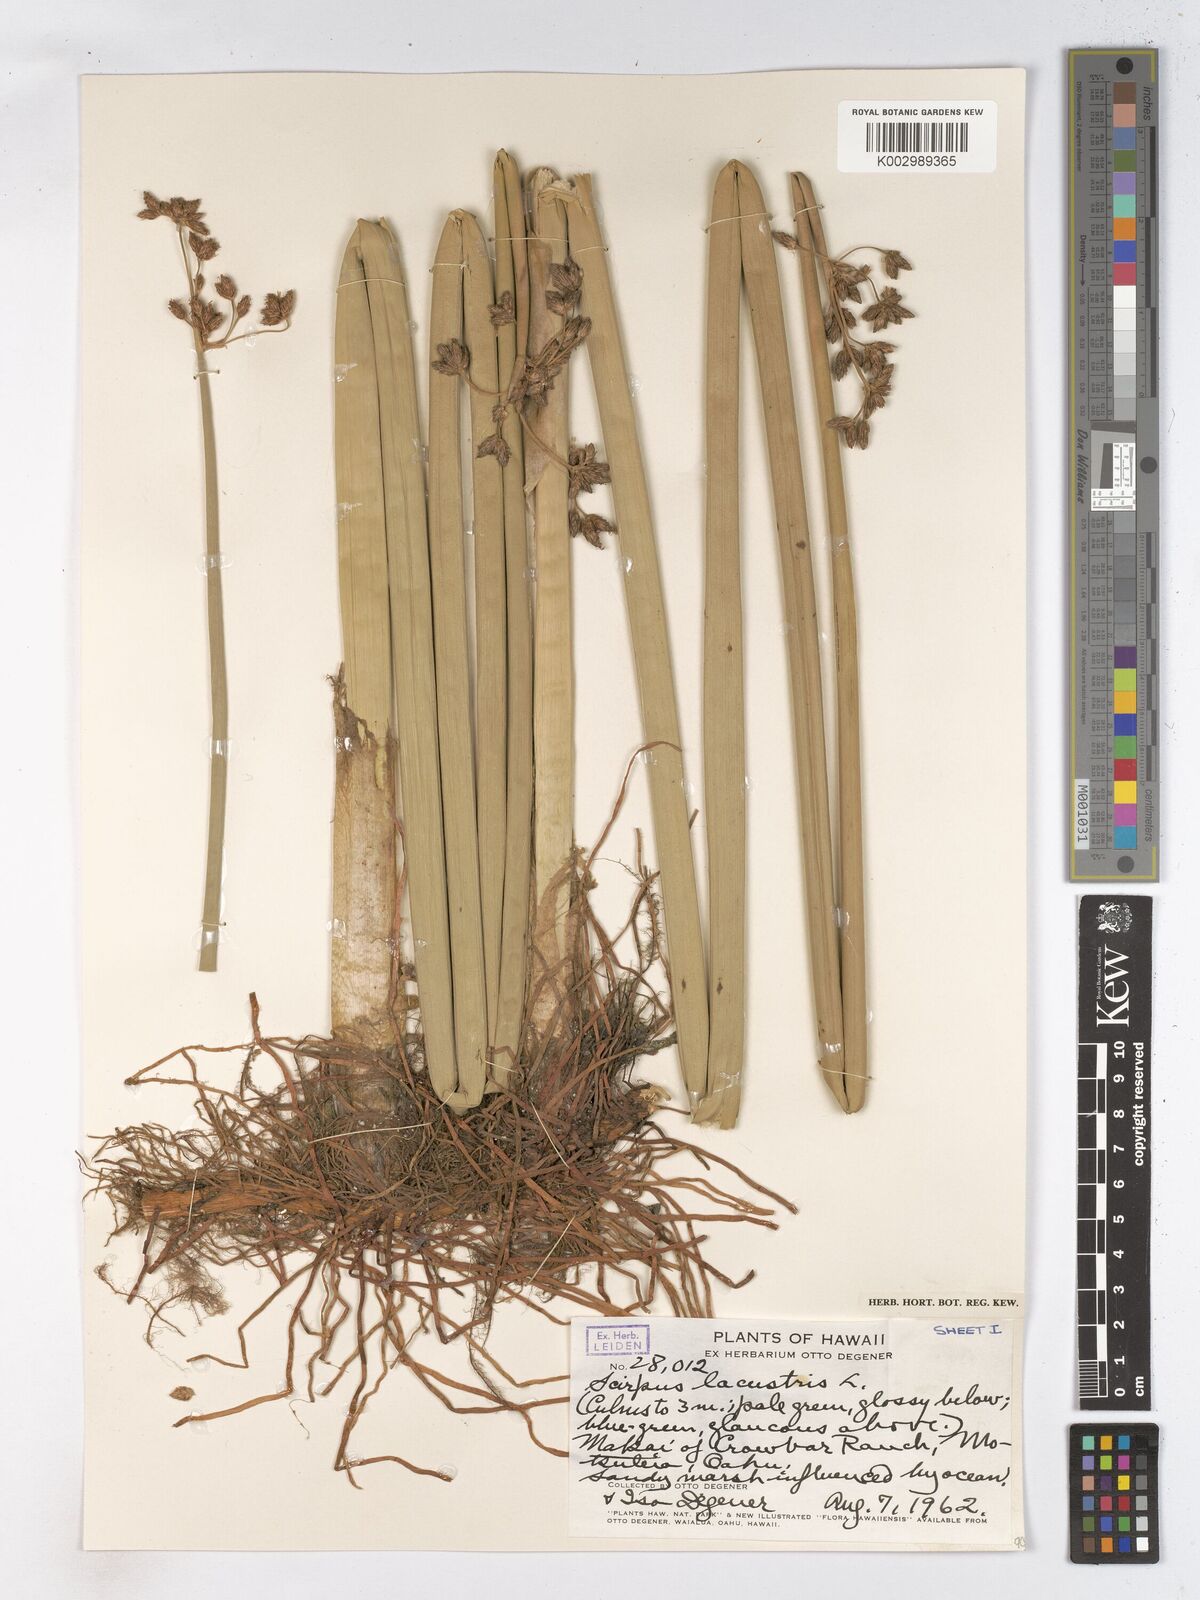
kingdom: Plantae
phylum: Tracheophyta
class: Liliopsida
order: Poales
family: Cyperaceae
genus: Schoenoplectus
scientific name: Schoenoplectus lacustris
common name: Common club-rush
